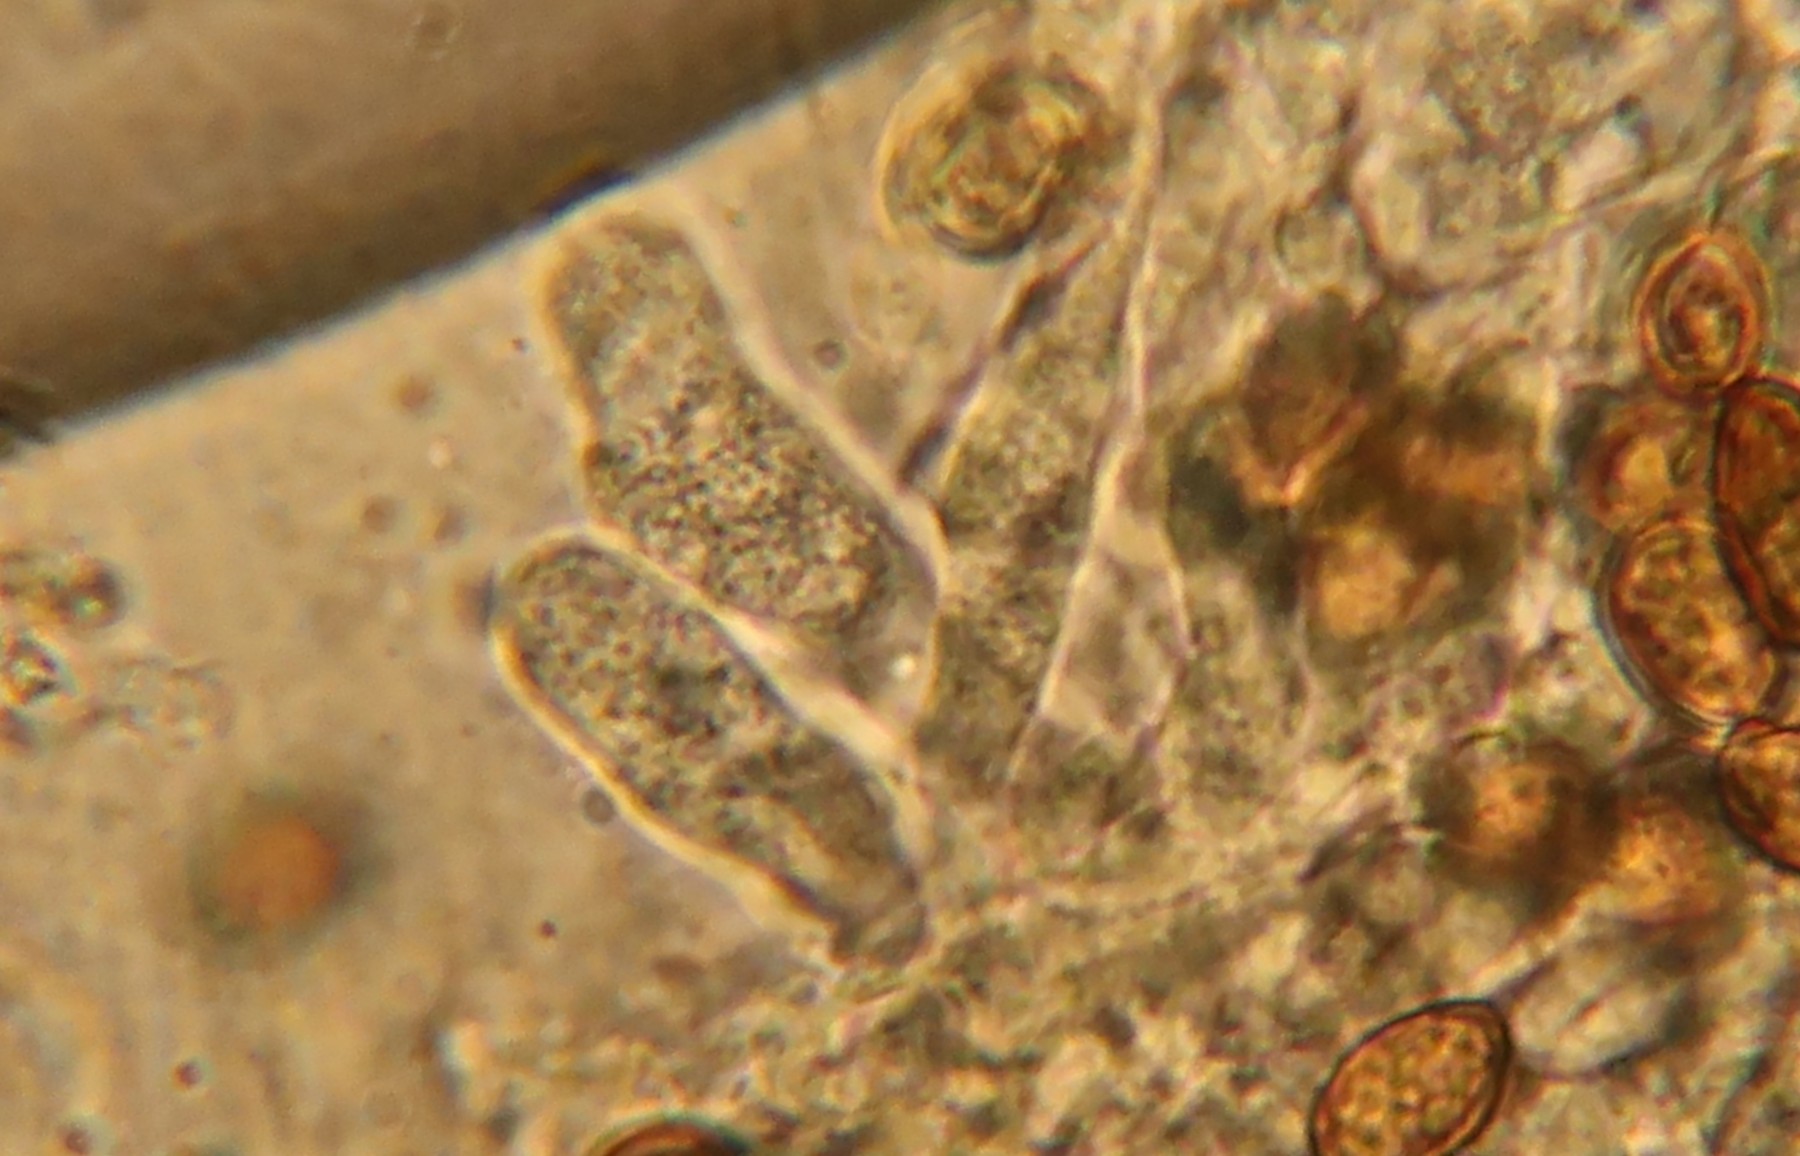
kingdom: Fungi
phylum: Basidiomycota
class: Agaricomycetes
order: Boletales
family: Coniophoraceae
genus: Coniophora
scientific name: Coniophora puteana
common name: gul tømmersvamp
